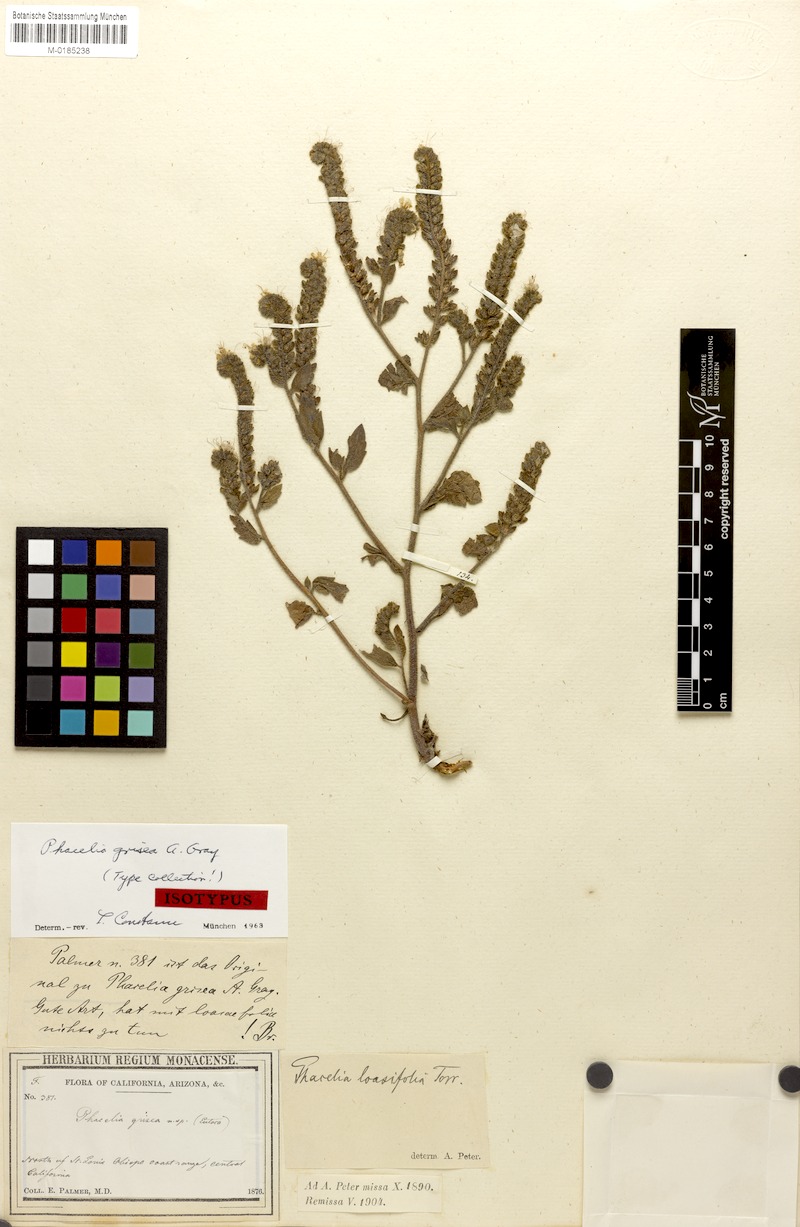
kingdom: Plantae
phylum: Tracheophyta
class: Magnoliopsida
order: Boraginales
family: Hydrophyllaceae
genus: Phacelia
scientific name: Phacelia grisea
